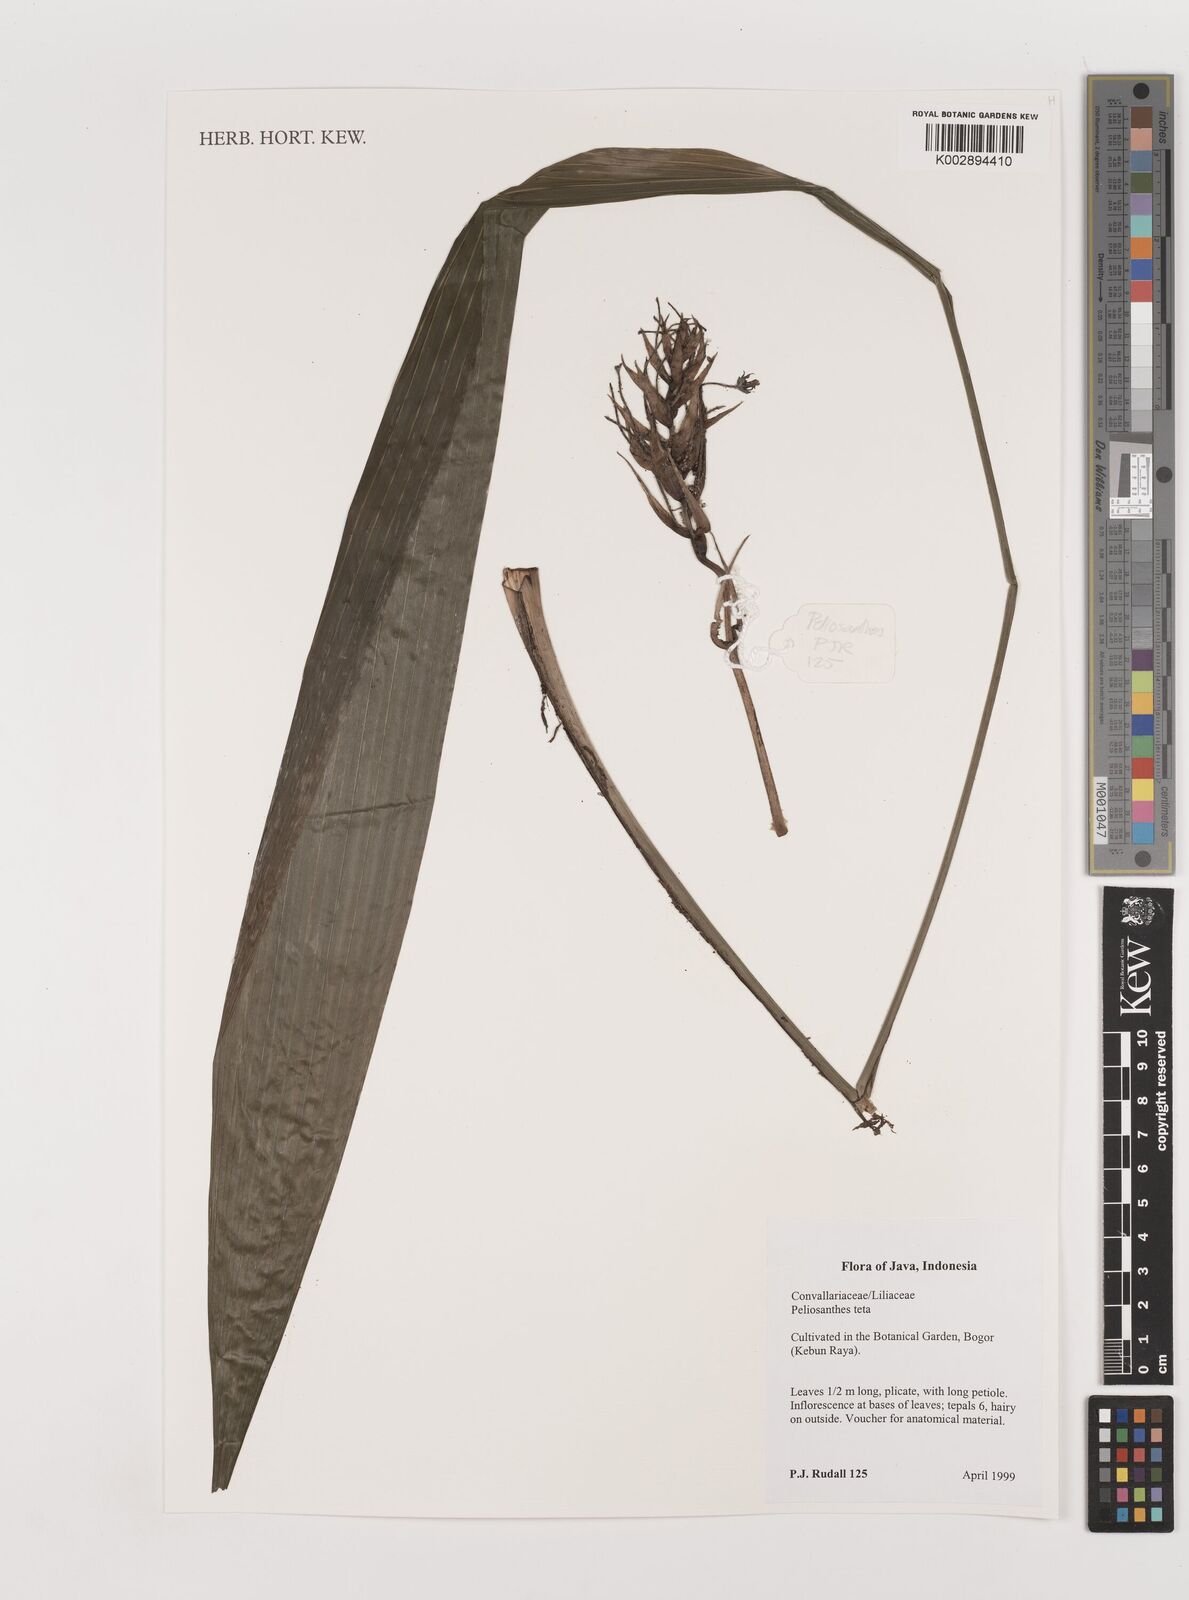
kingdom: Plantae
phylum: Tracheophyta
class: Liliopsida
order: Asparagales
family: Asparagaceae
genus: Peliosanthes
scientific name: Peliosanthes teta
